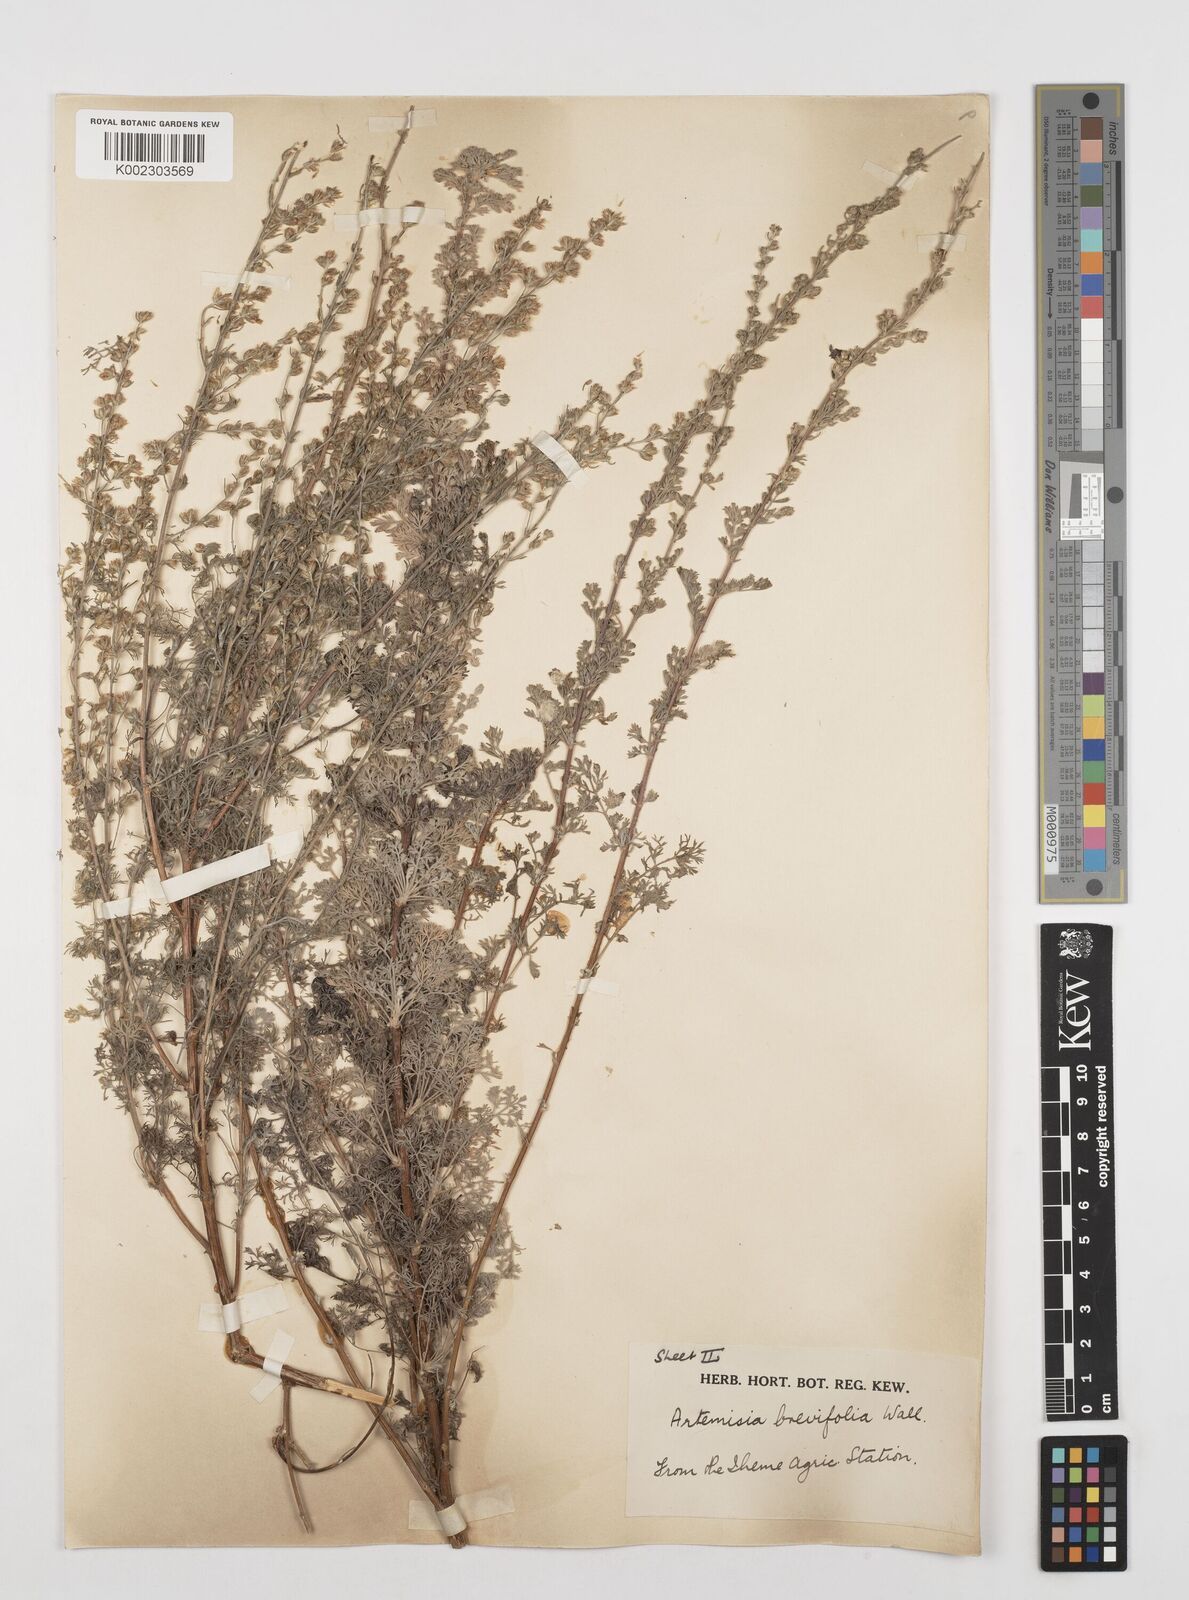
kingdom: Plantae
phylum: Tracheophyta
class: Magnoliopsida
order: Asterales
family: Asteraceae
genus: Artemisia
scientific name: Artemisia brevifolia
